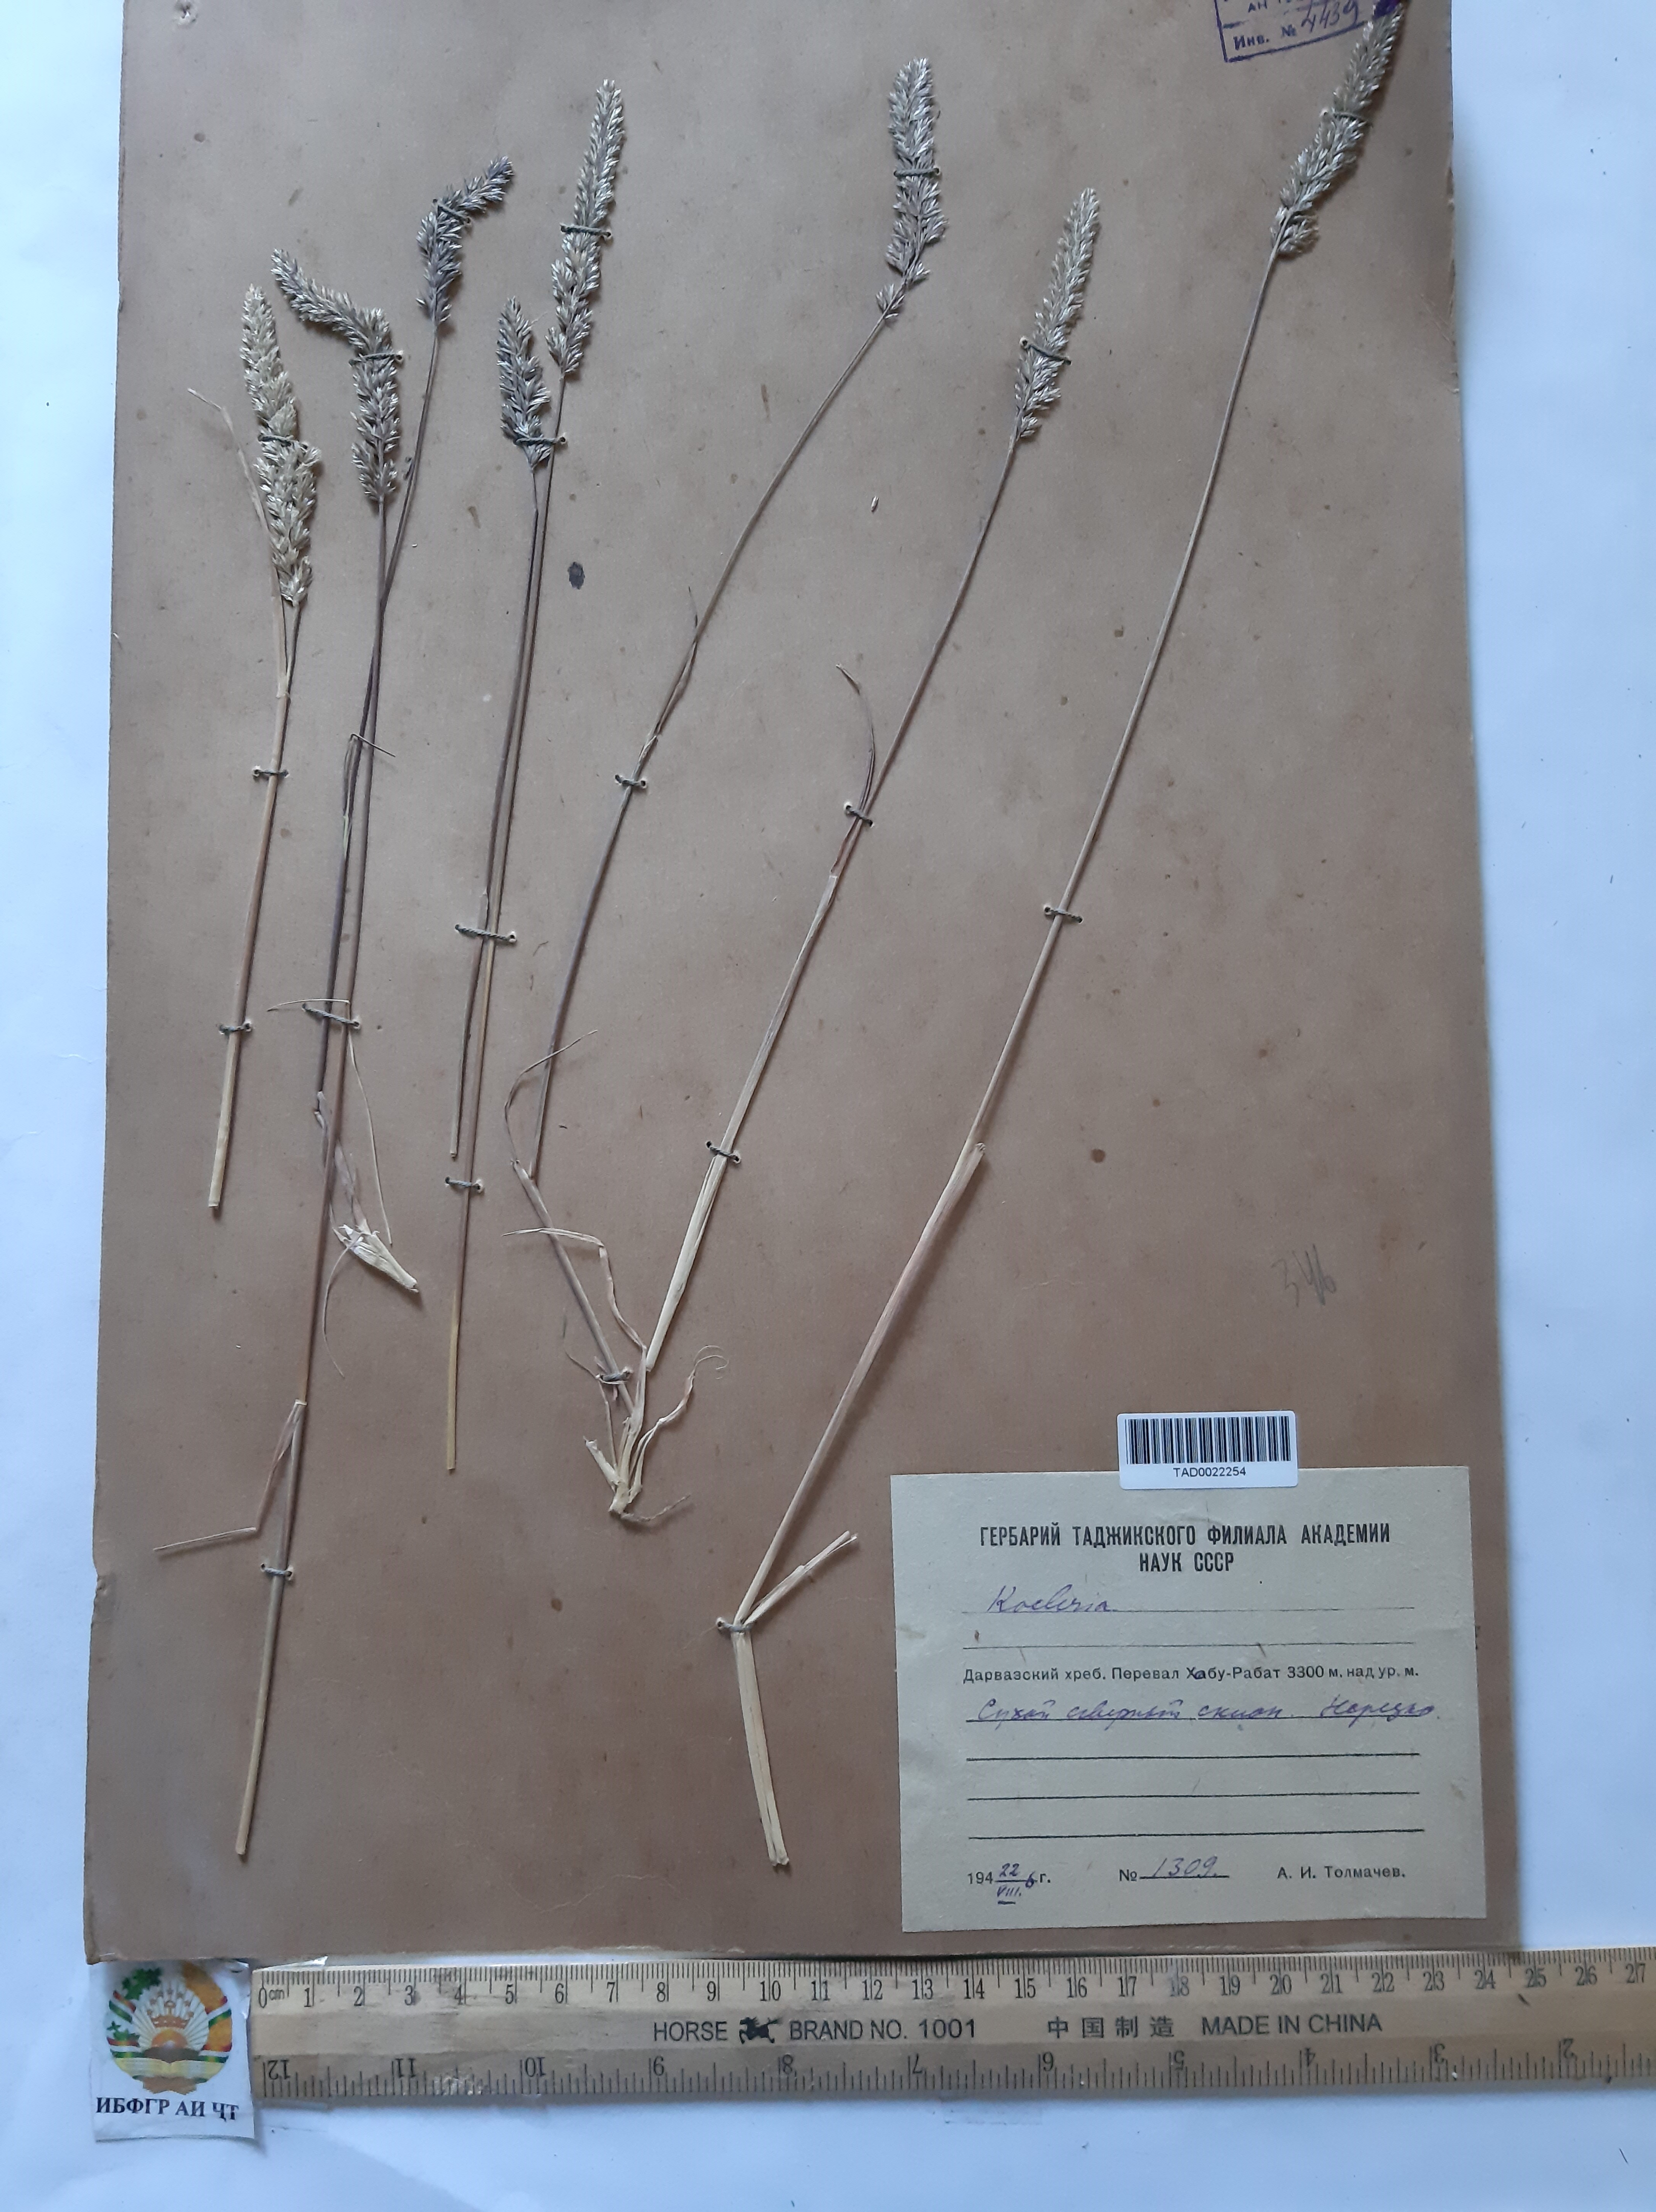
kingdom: Plantae
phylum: Tracheophyta
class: Liliopsida
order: Poales
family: Poaceae
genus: Koeleria
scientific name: Koeleria macrantha
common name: Crested hair-grass
